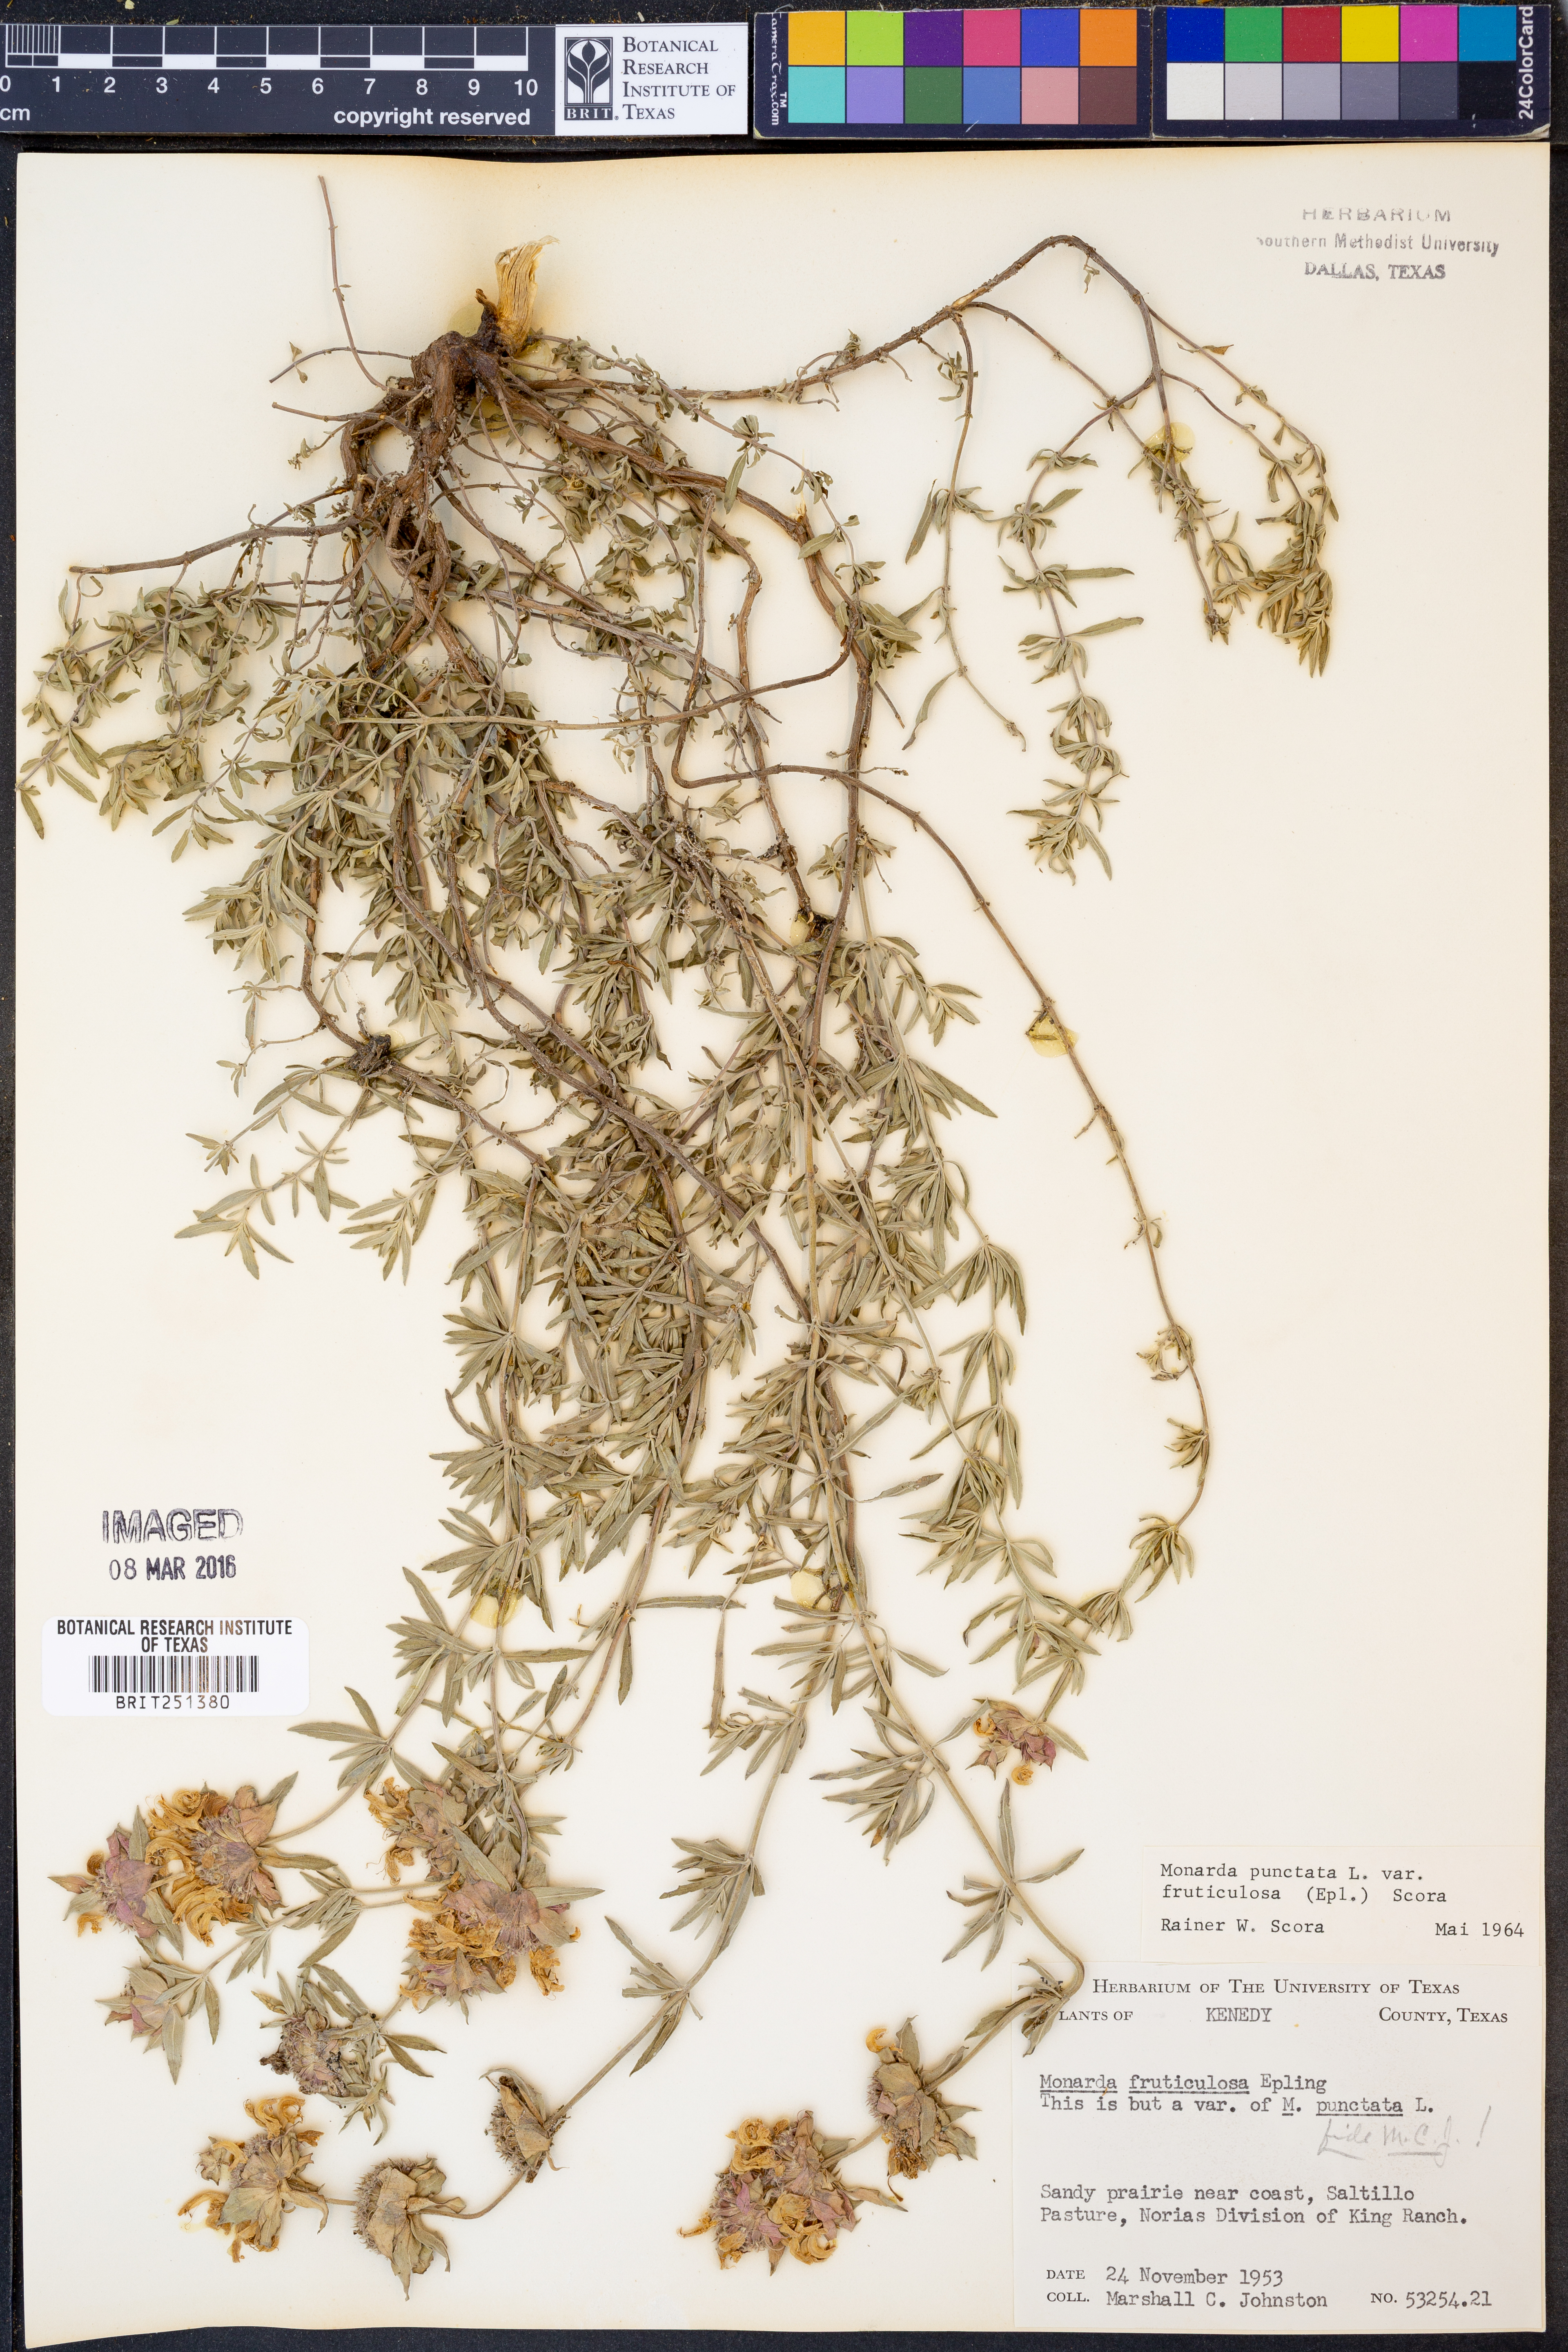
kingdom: Plantae
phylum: Tracheophyta
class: Magnoliopsida
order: Lamiales
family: Lamiaceae
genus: Monarda
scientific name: Monarda fruticulosa
